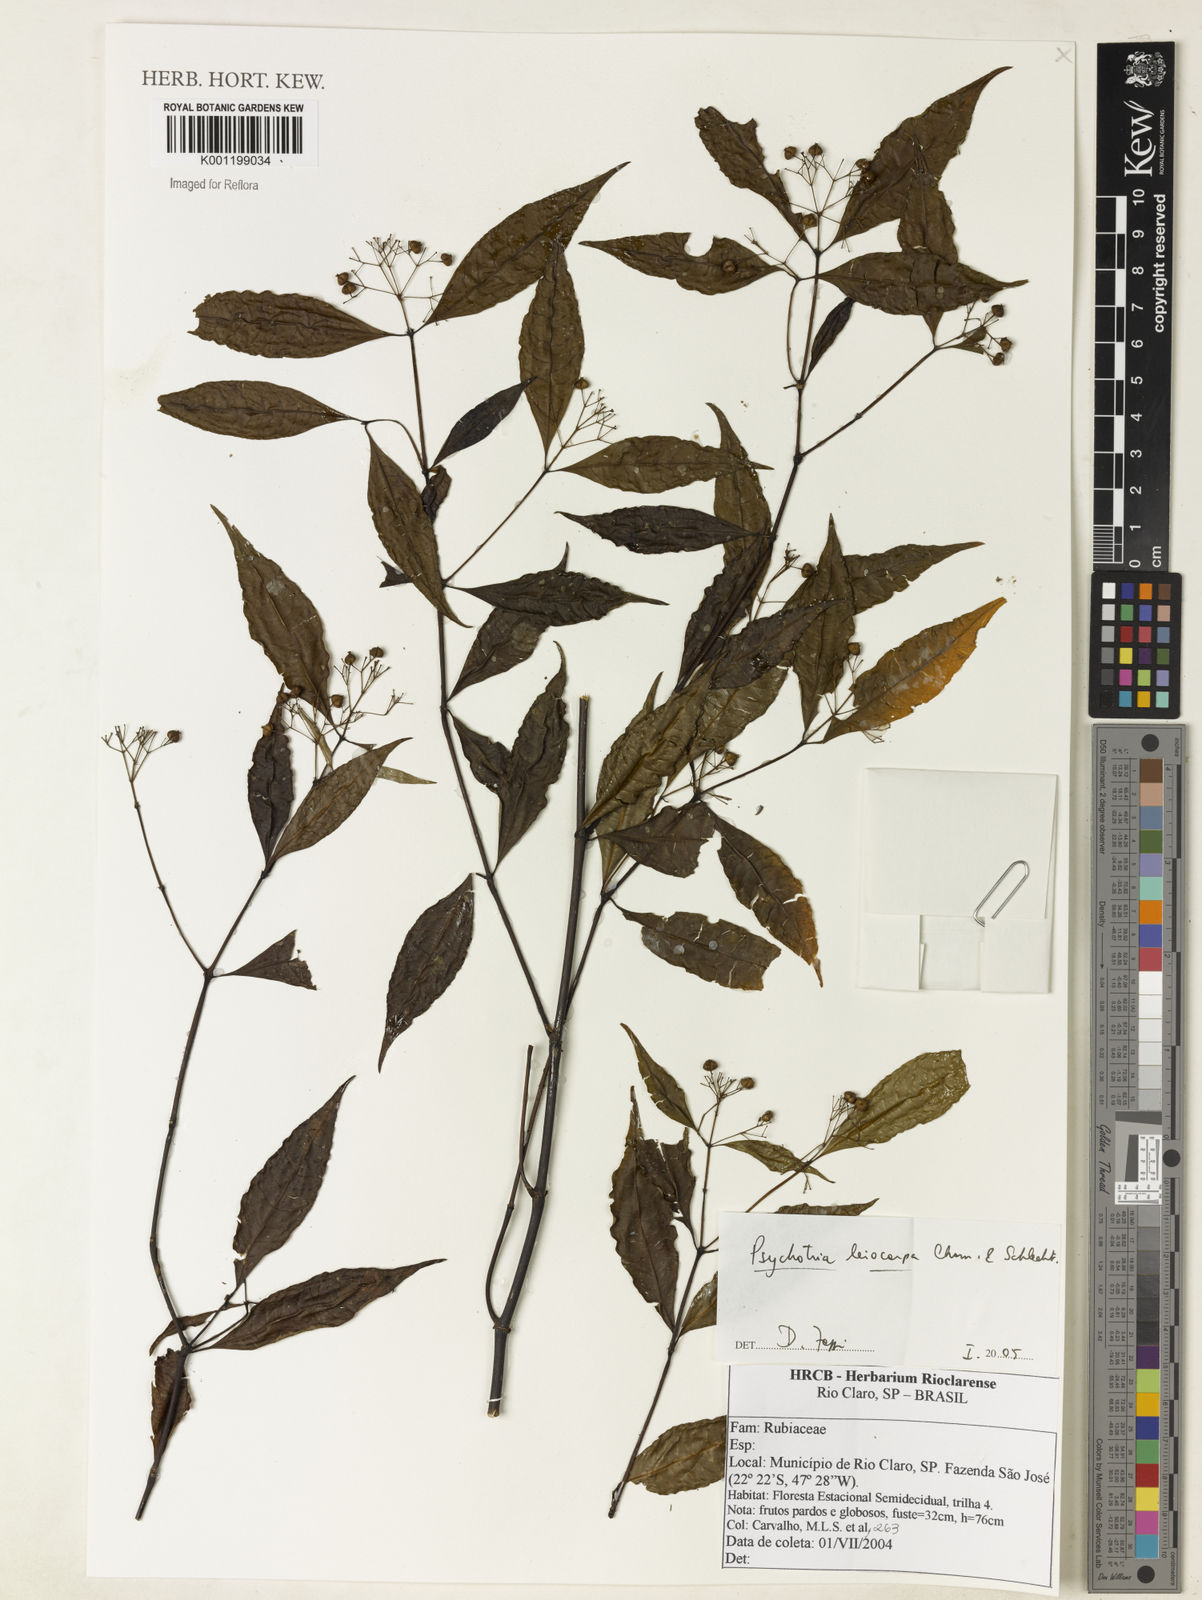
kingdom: Plantae
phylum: Tracheophyta
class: Magnoliopsida
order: Gentianales
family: Rubiaceae
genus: Psychotria
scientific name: Psychotria leiocarpa
